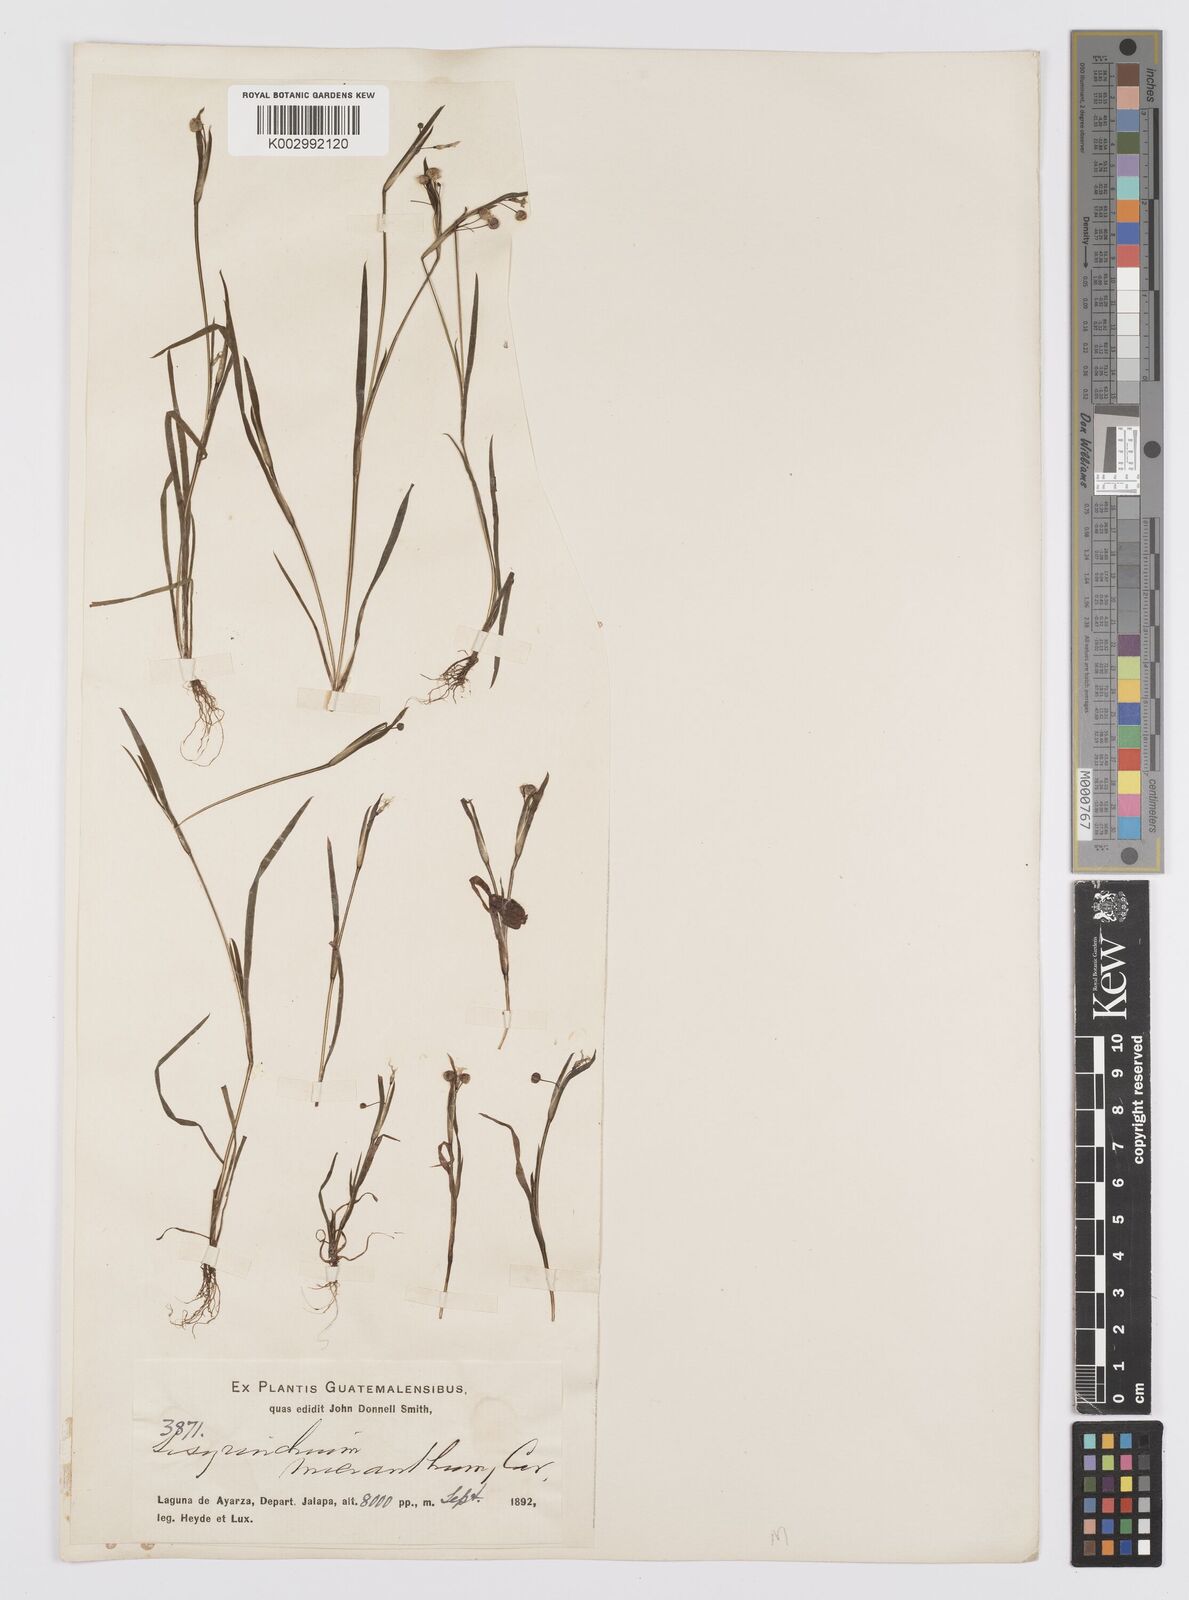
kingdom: Plantae
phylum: Tracheophyta
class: Liliopsida
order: Asparagales
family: Iridaceae
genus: Sisyrinchium
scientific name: Sisyrinchium micranthum
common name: Bermuda pigroot
